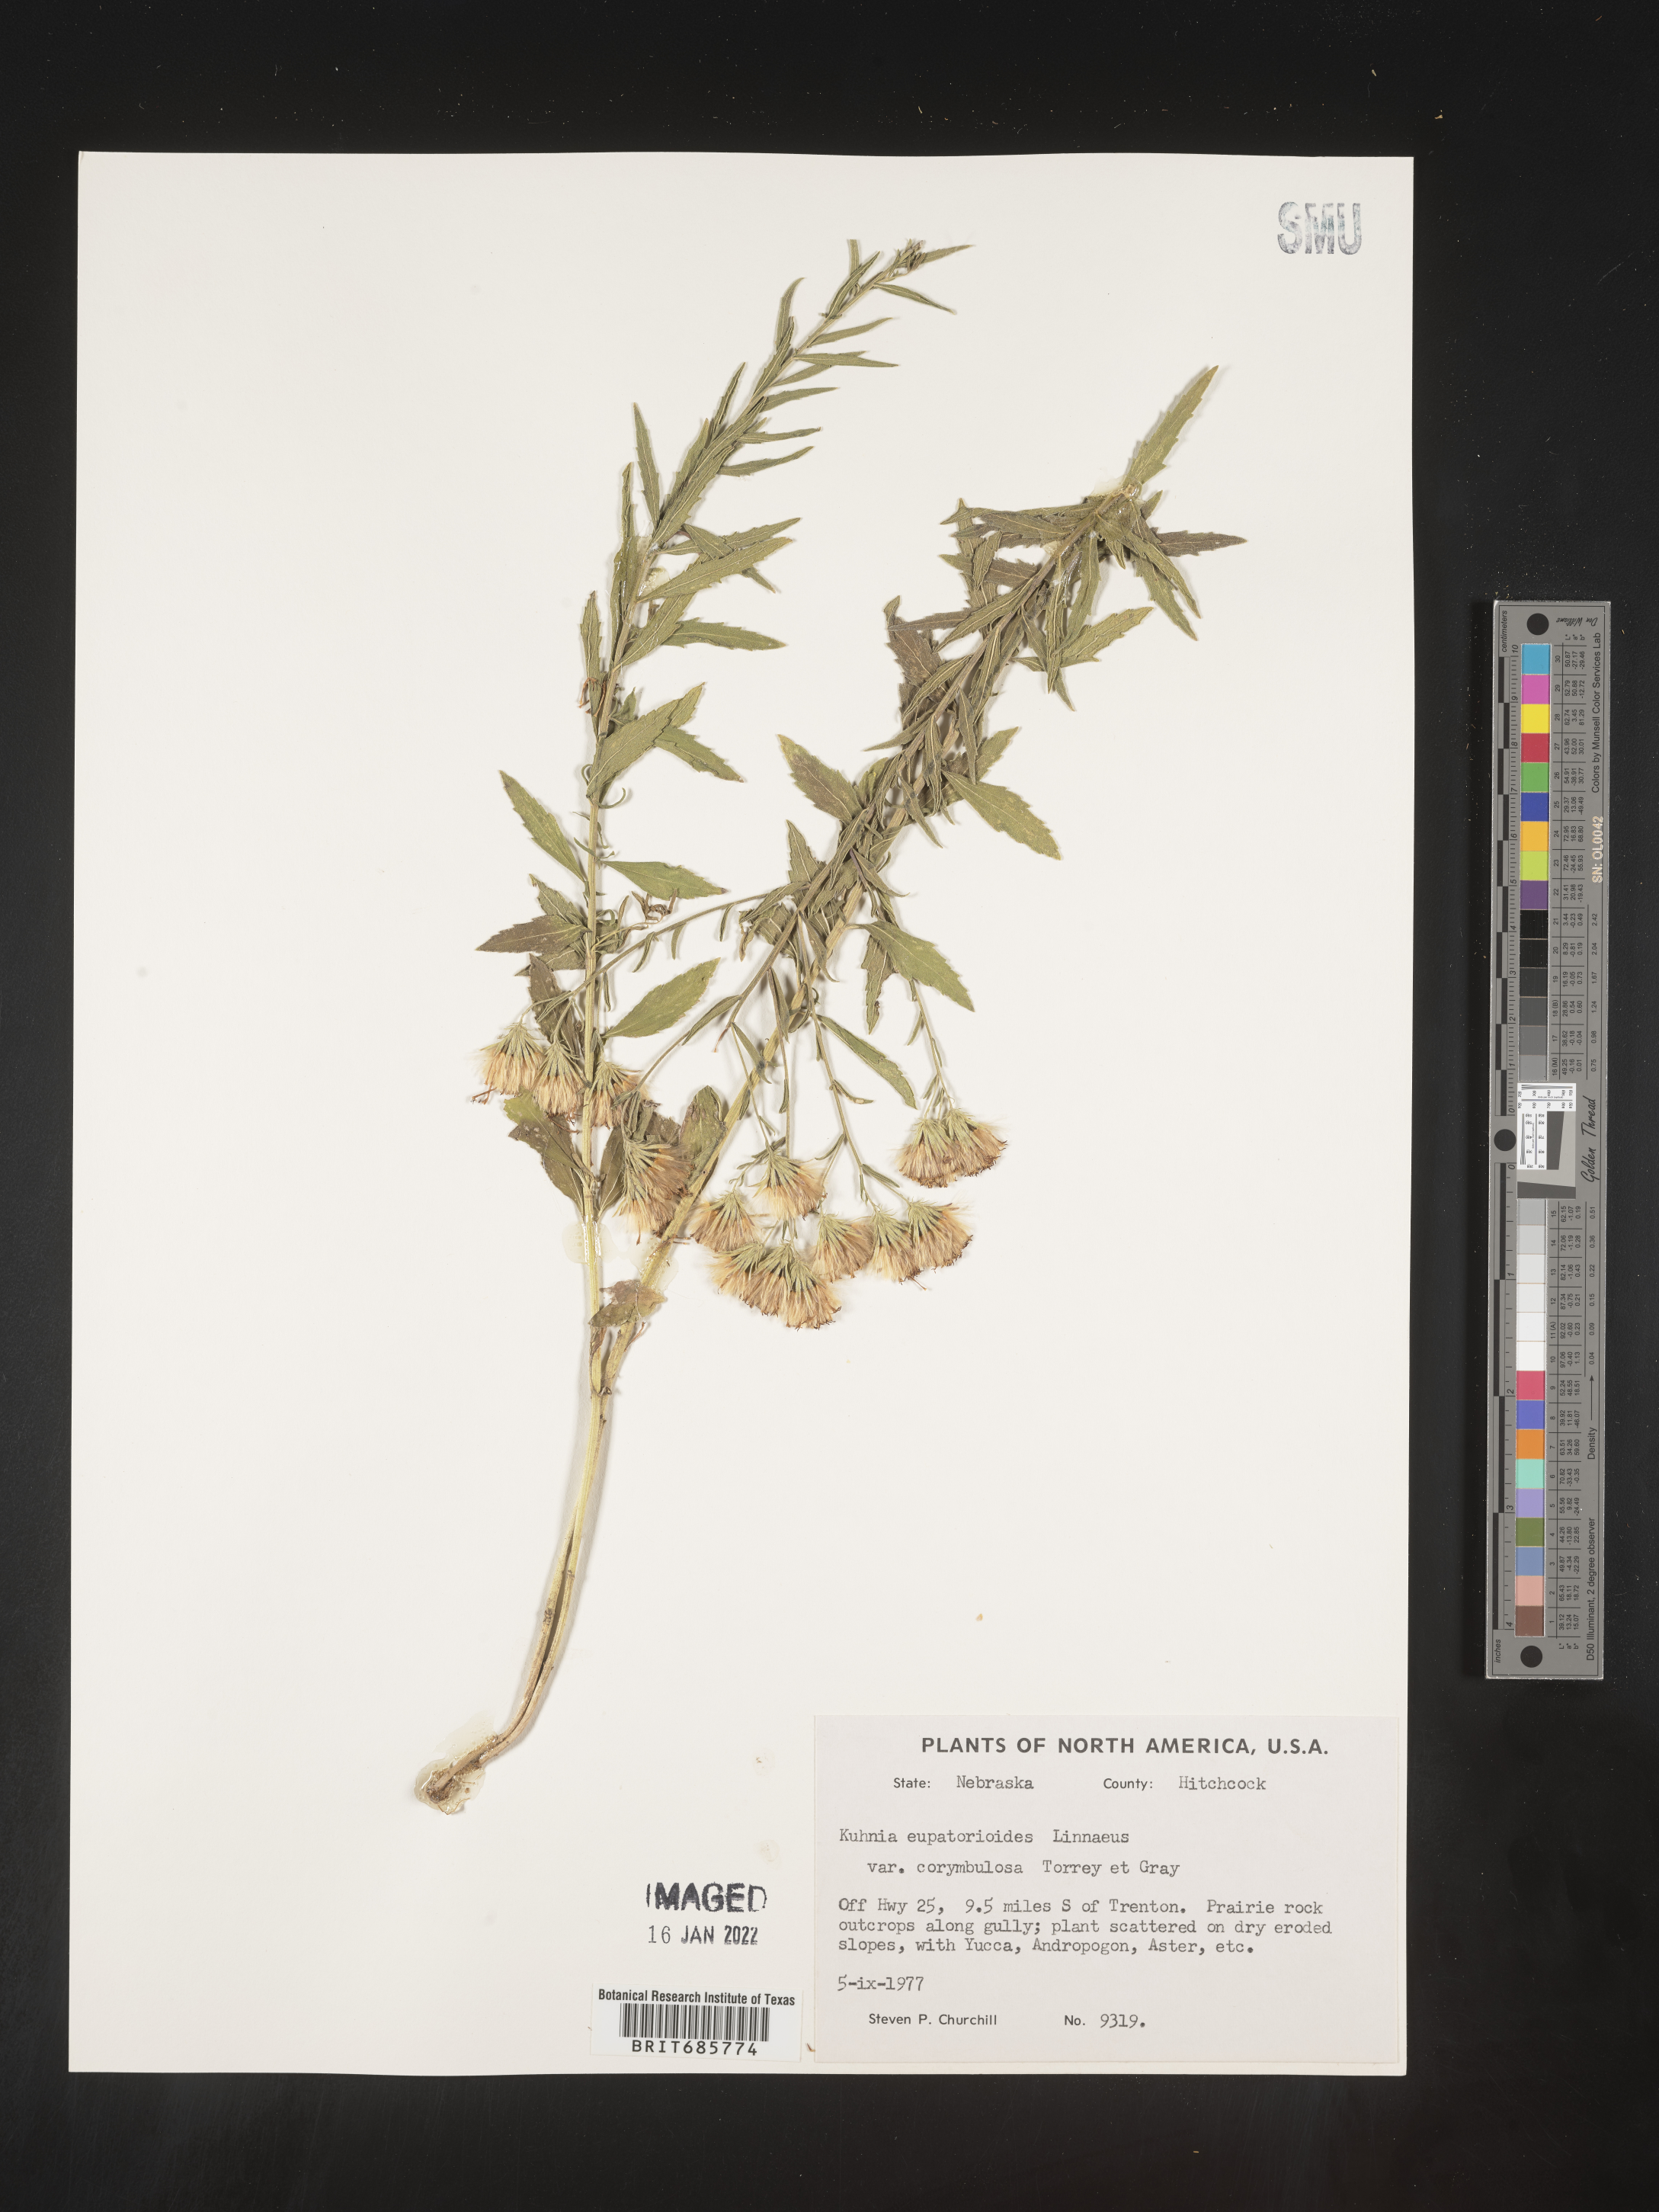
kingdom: Plantae
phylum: Tracheophyta
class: Magnoliopsida
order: Asterales
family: Asteraceae
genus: Brickellia
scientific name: Brickellia eupatorioides
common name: False boneset
